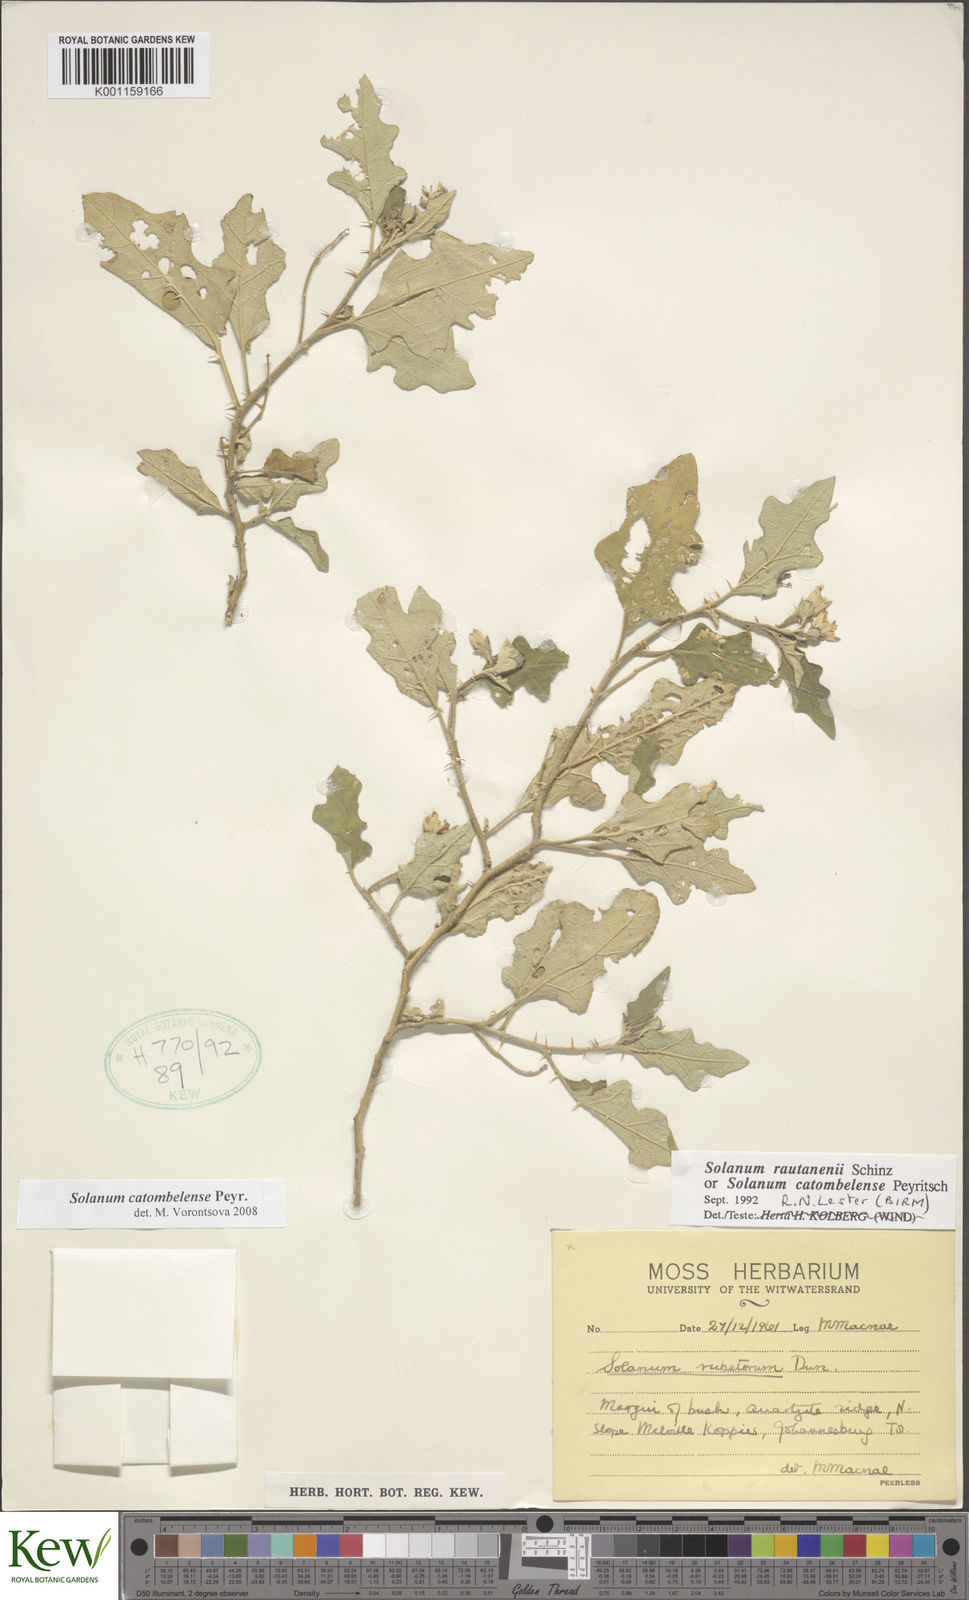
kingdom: Plantae
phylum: Tracheophyta
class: Magnoliopsida
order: Solanales
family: Solanaceae
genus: Solanum
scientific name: Solanum catombelense
